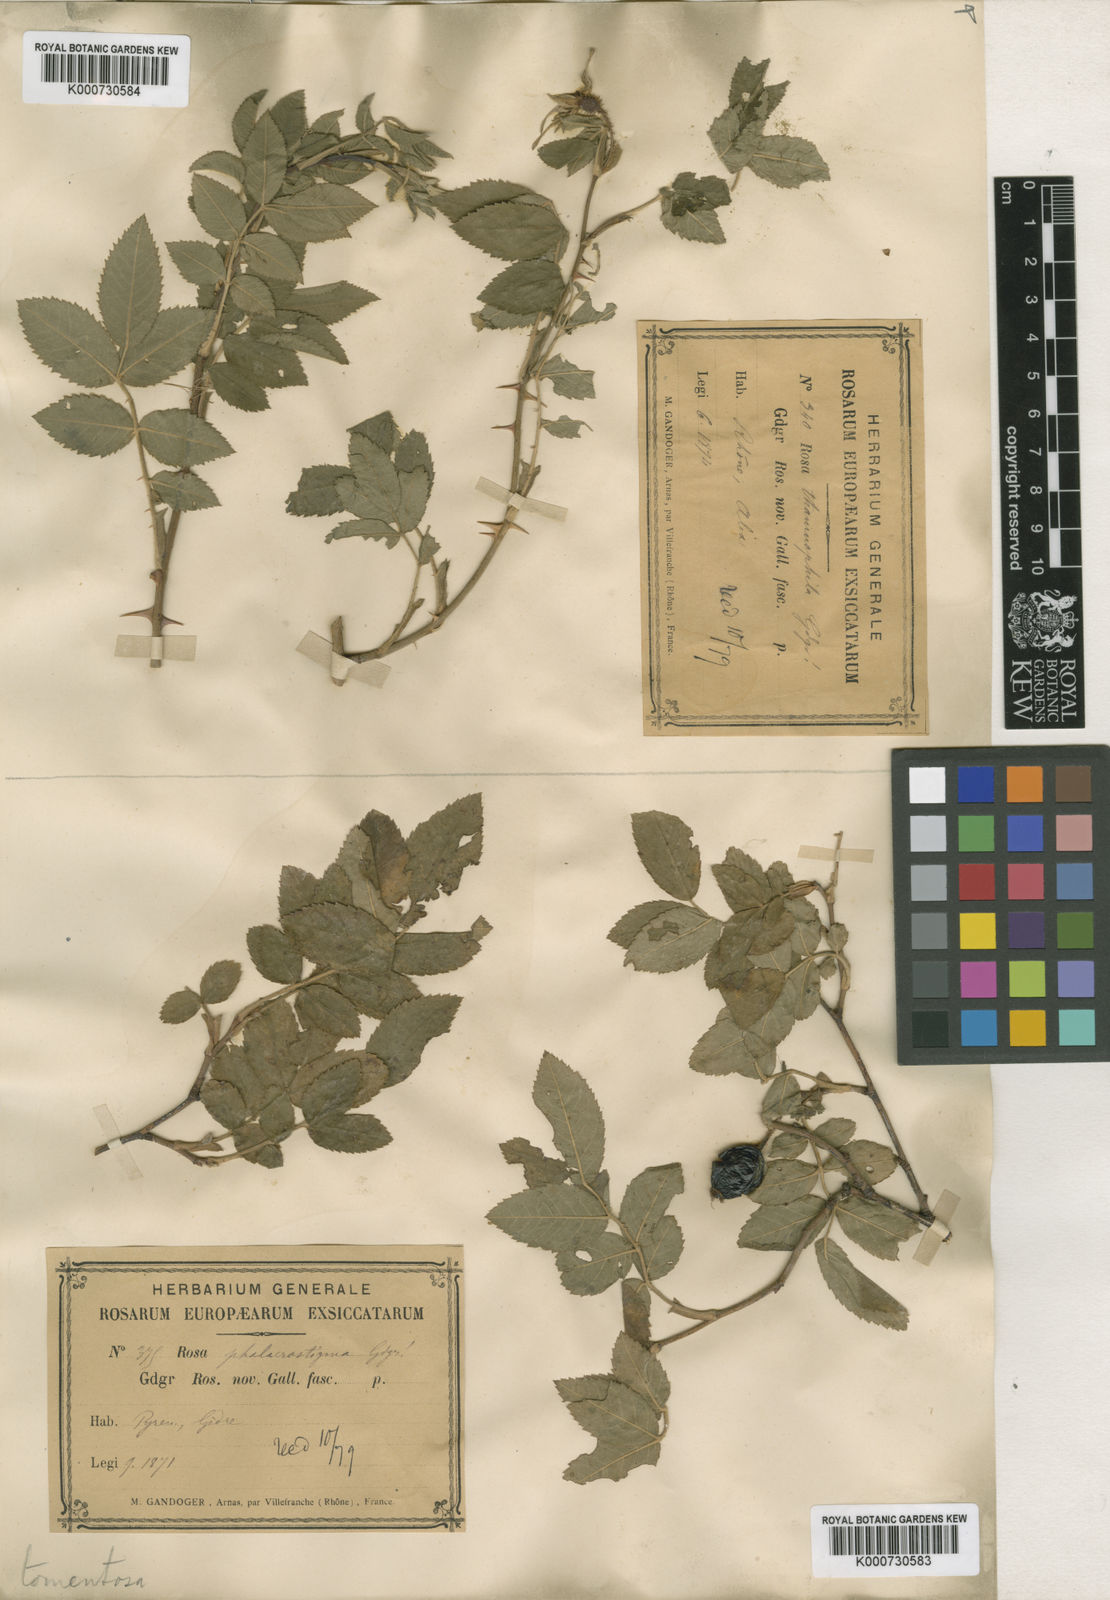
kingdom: Plantae
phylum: Tracheophyta
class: Magnoliopsida
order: Rosales
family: Rosaceae
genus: Rosa
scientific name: Rosa tomentosa
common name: Downy rose
